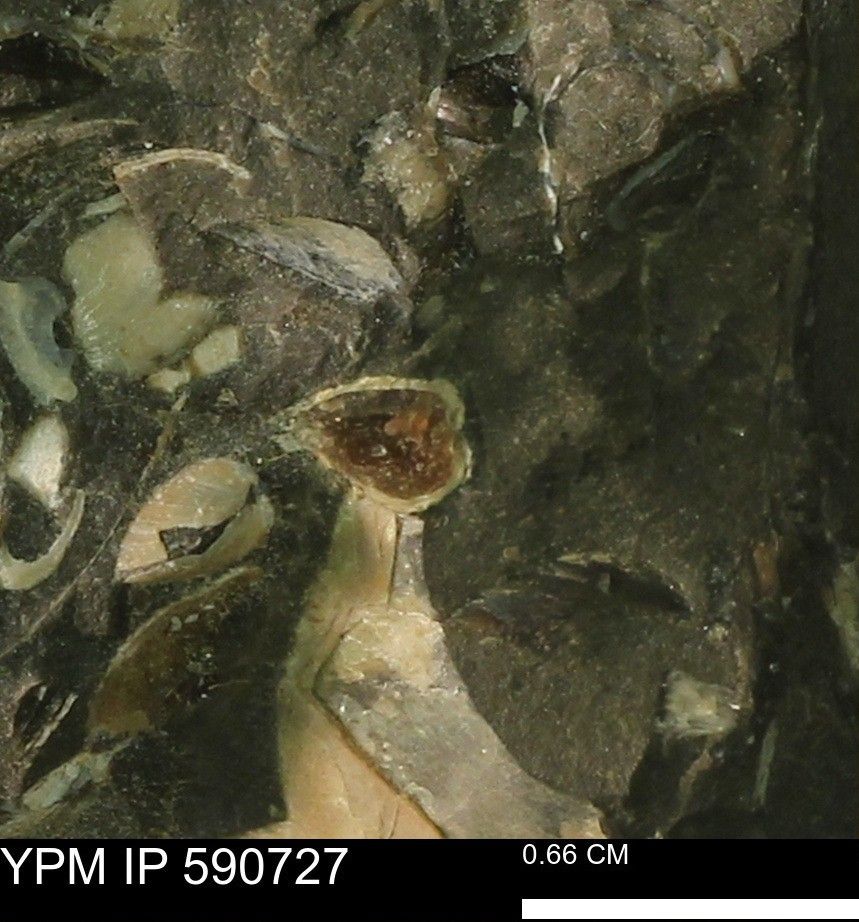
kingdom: Animalia
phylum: Mollusca
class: Bivalvia
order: Cardiida
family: Cardiidae
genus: Protocardia
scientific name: Protocardia
